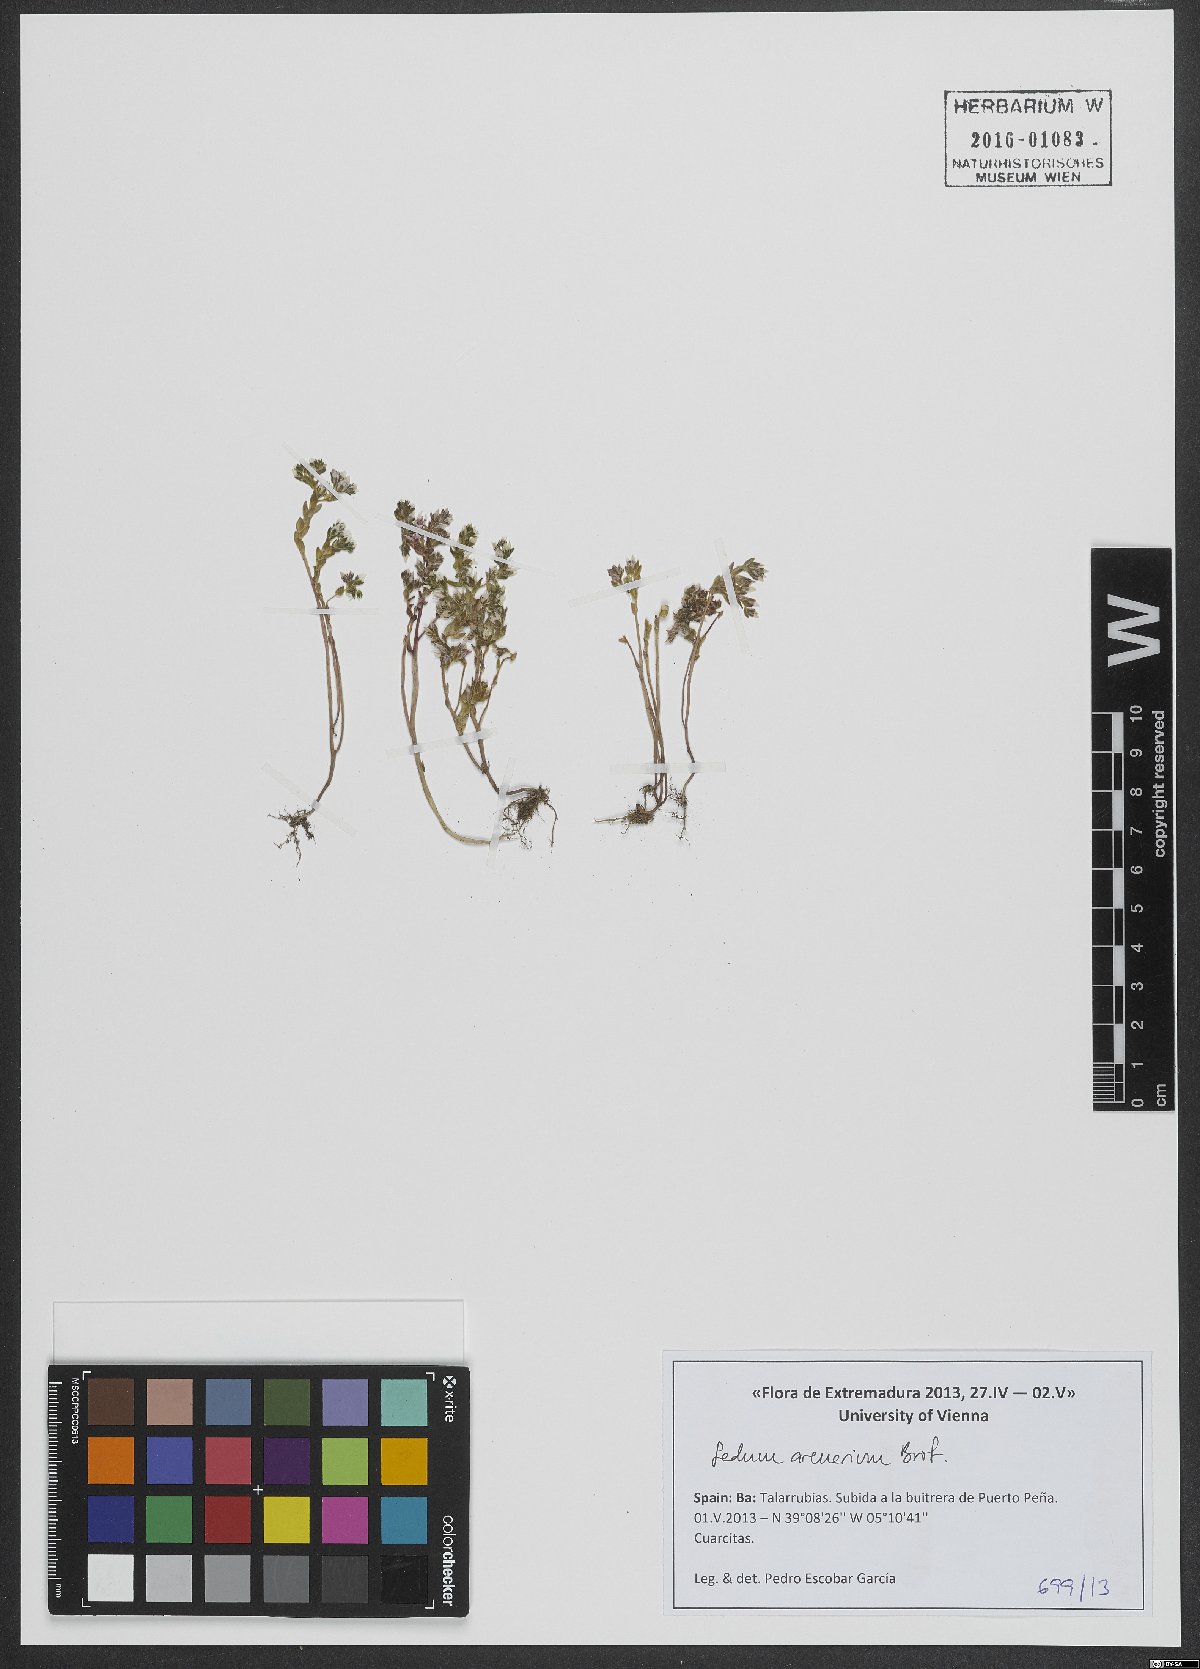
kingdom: Plantae
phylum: Tracheophyta
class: Magnoliopsida
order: Saxifragales
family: Crassulaceae
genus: Sedum
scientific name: Sedum arenarium
